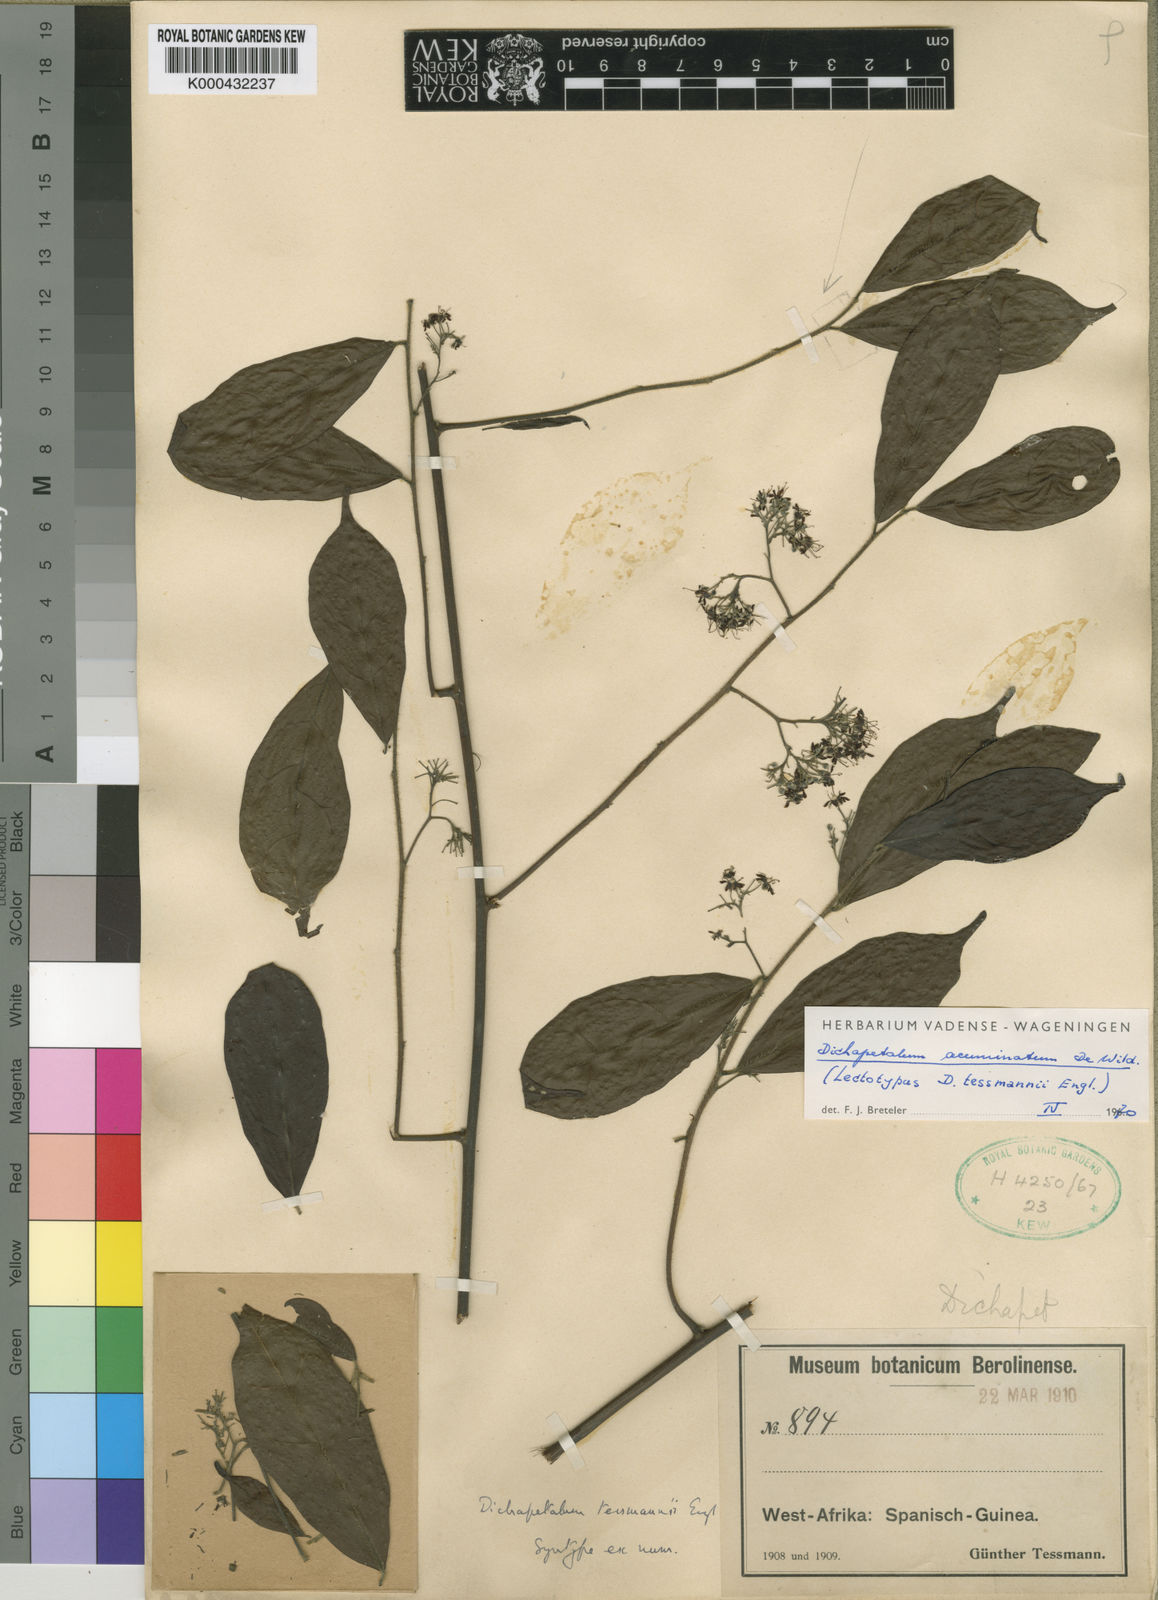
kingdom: Plantae
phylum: Tracheophyta
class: Magnoliopsida
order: Malpighiales
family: Dichapetalaceae
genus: Dichapetalum
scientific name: Dichapetalum acuminatum
